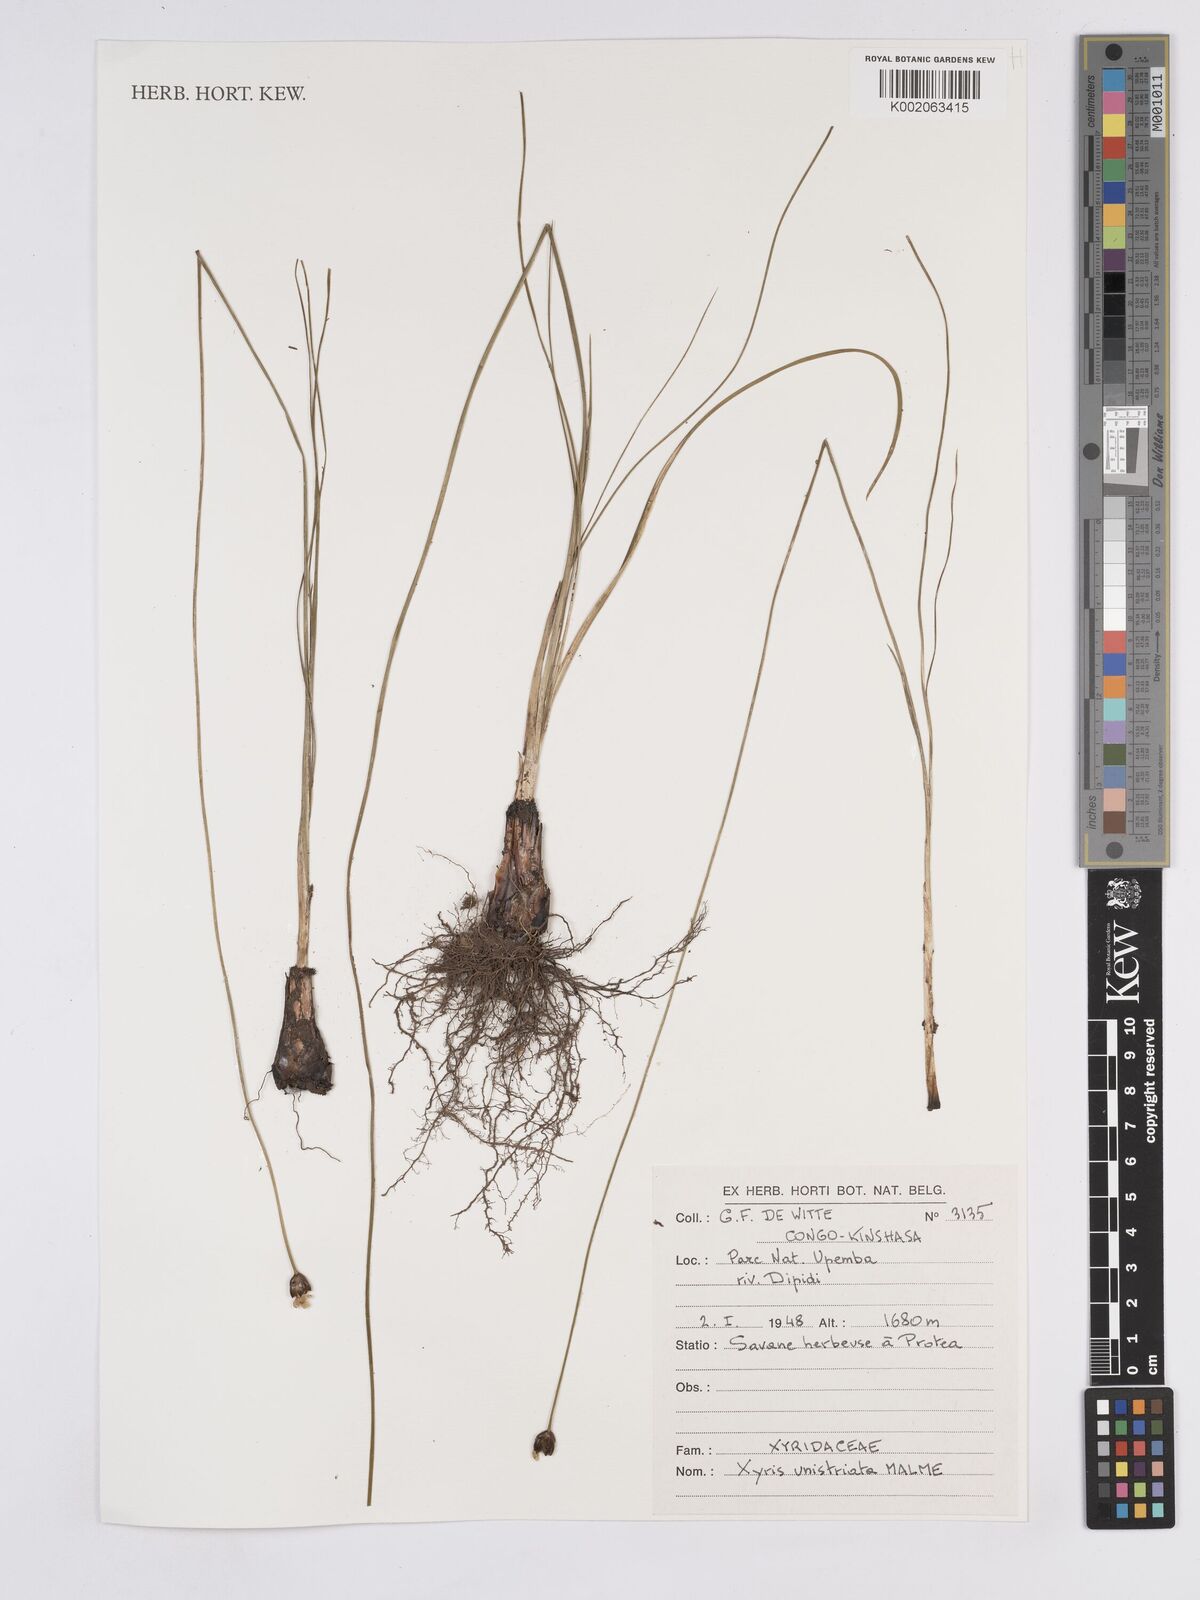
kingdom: Plantae
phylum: Tracheophyta
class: Liliopsida
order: Poales
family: Xyridaceae
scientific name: Xyridaceae
